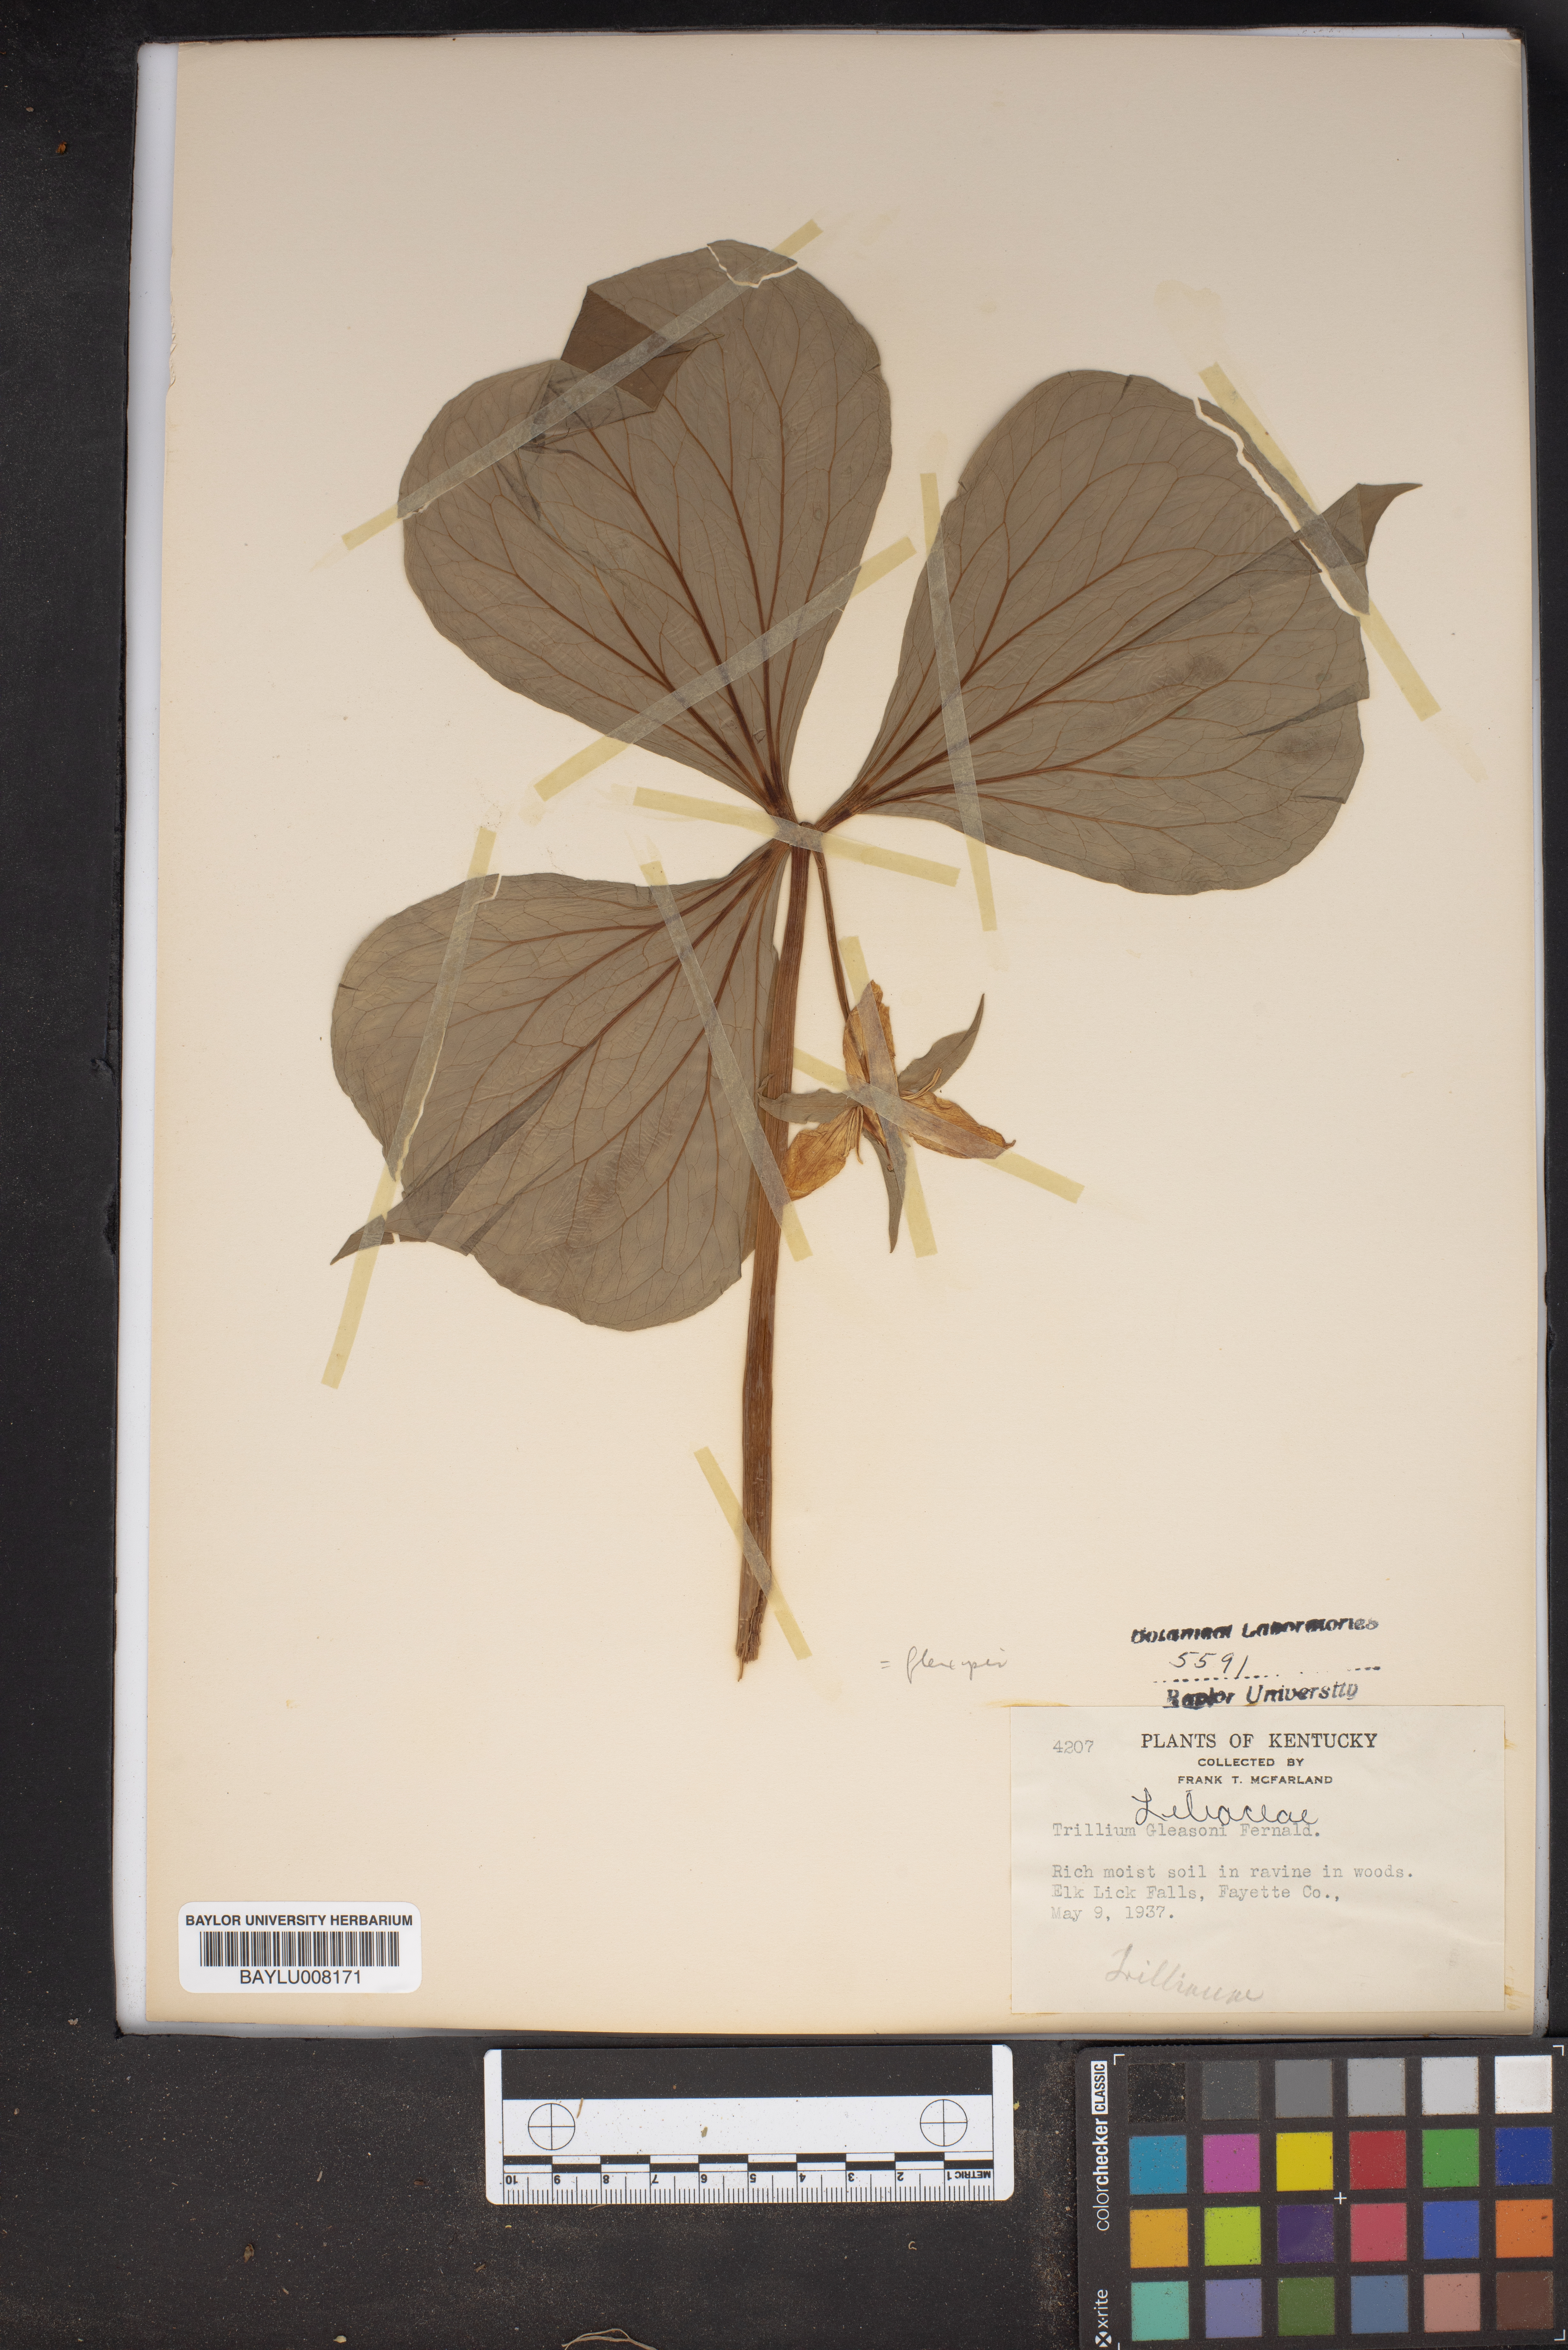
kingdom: Plantae
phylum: Tracheophyta
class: Liliopsida
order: Liliales
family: Melanthiaceae
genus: Trillium
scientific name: Trillium flexipes
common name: Drooping trillium
